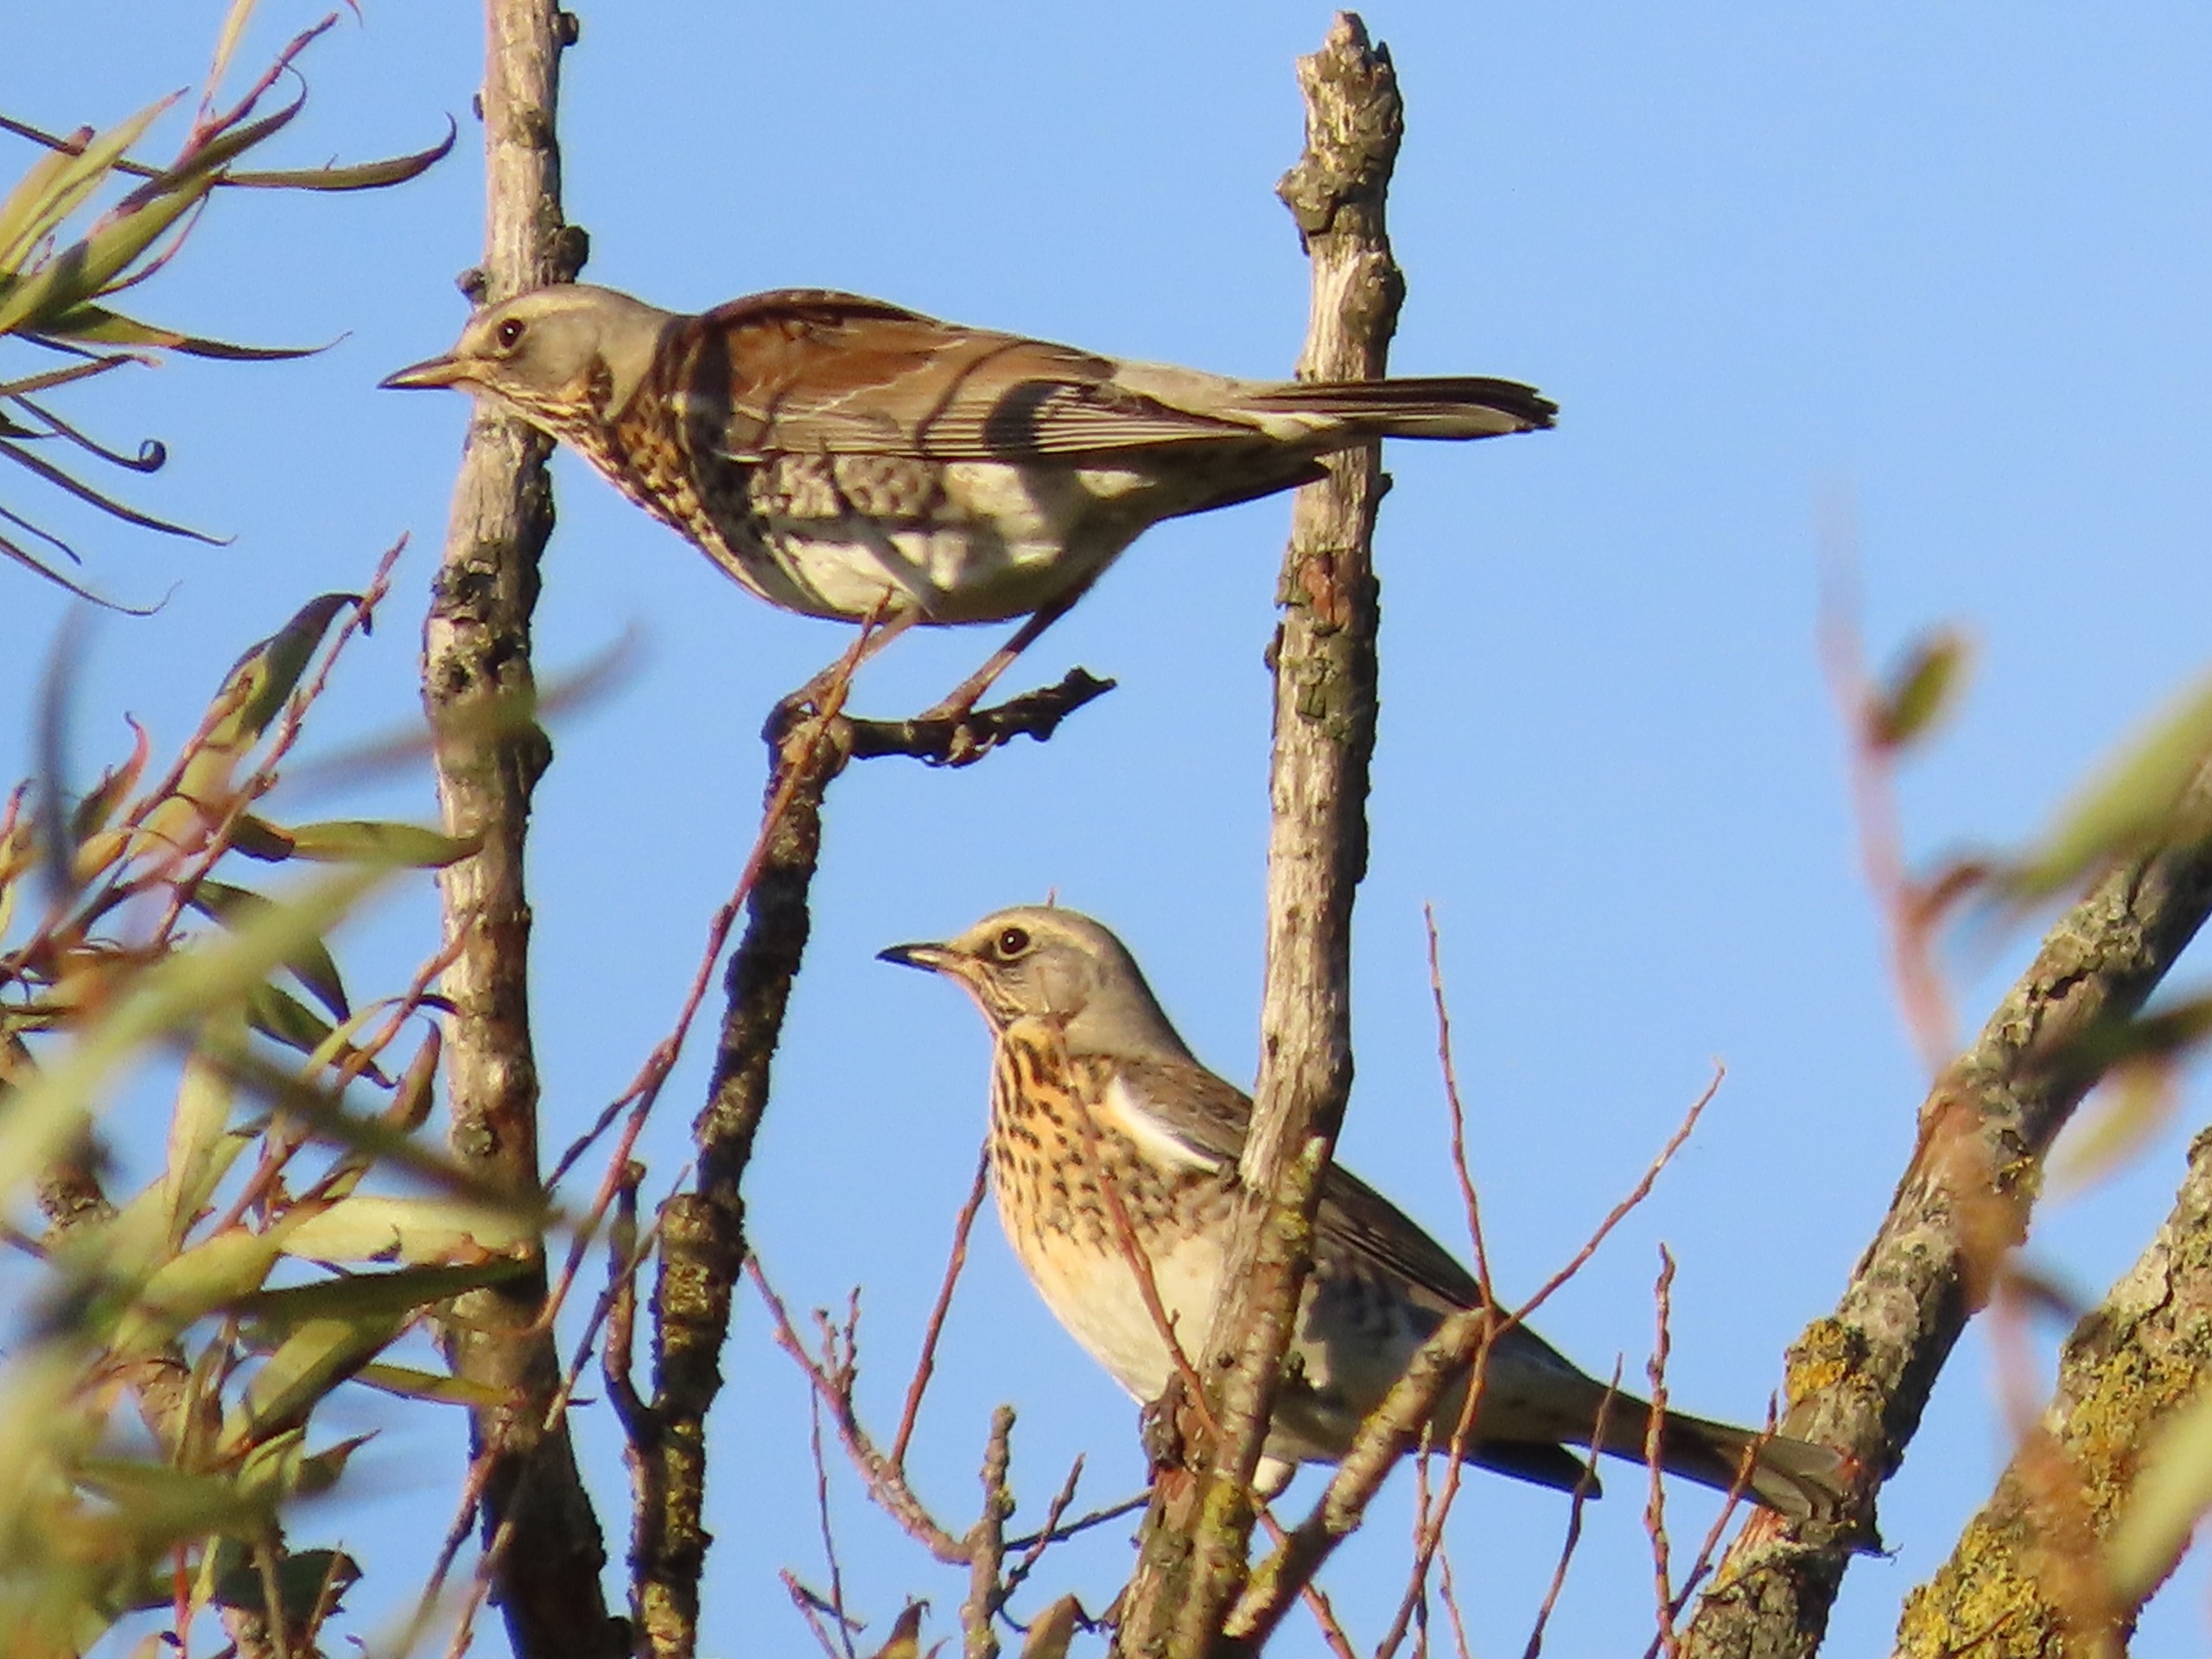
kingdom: Animalia
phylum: Chordata
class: Aves
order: Passeriformes
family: Turdidae
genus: Turdus
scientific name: Turdus pilaris
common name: Sjagger
